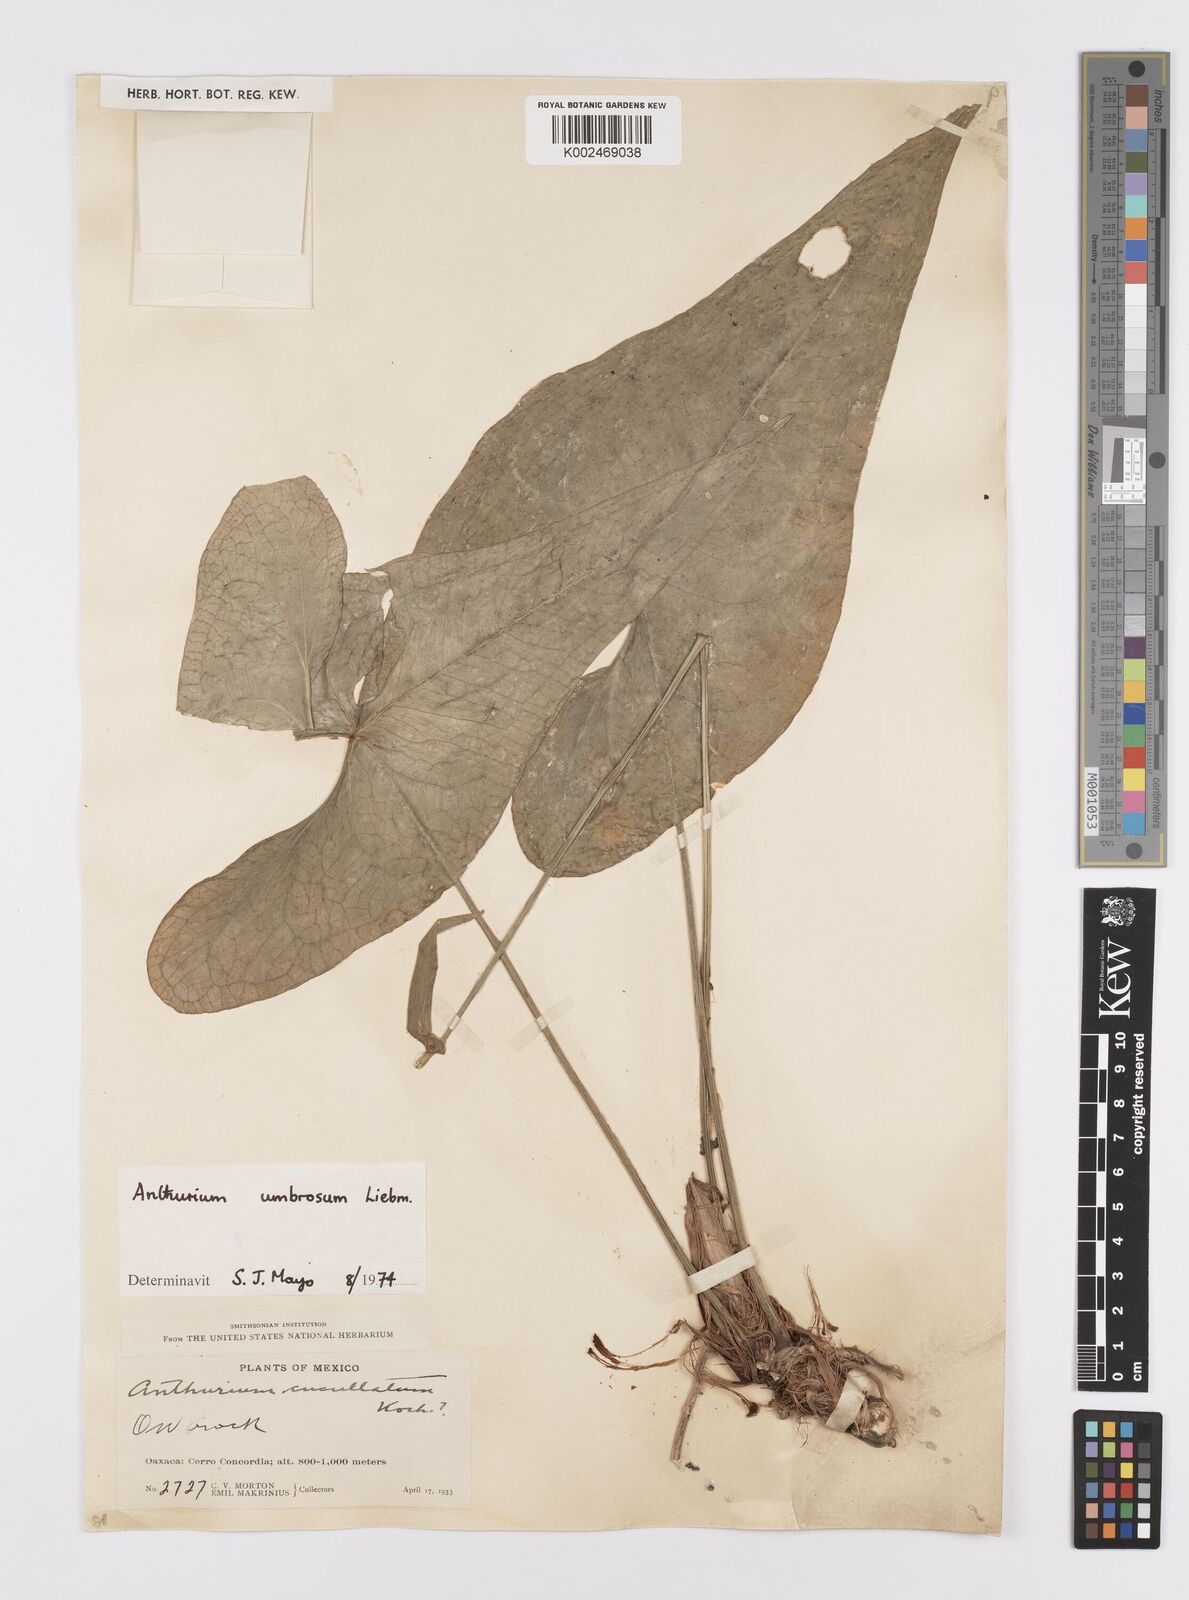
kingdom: Plantae
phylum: Tracheophyta
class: Liliopsida
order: Alismatales
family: Araceae
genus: Anthurium
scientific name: Anthurium umbrosum
